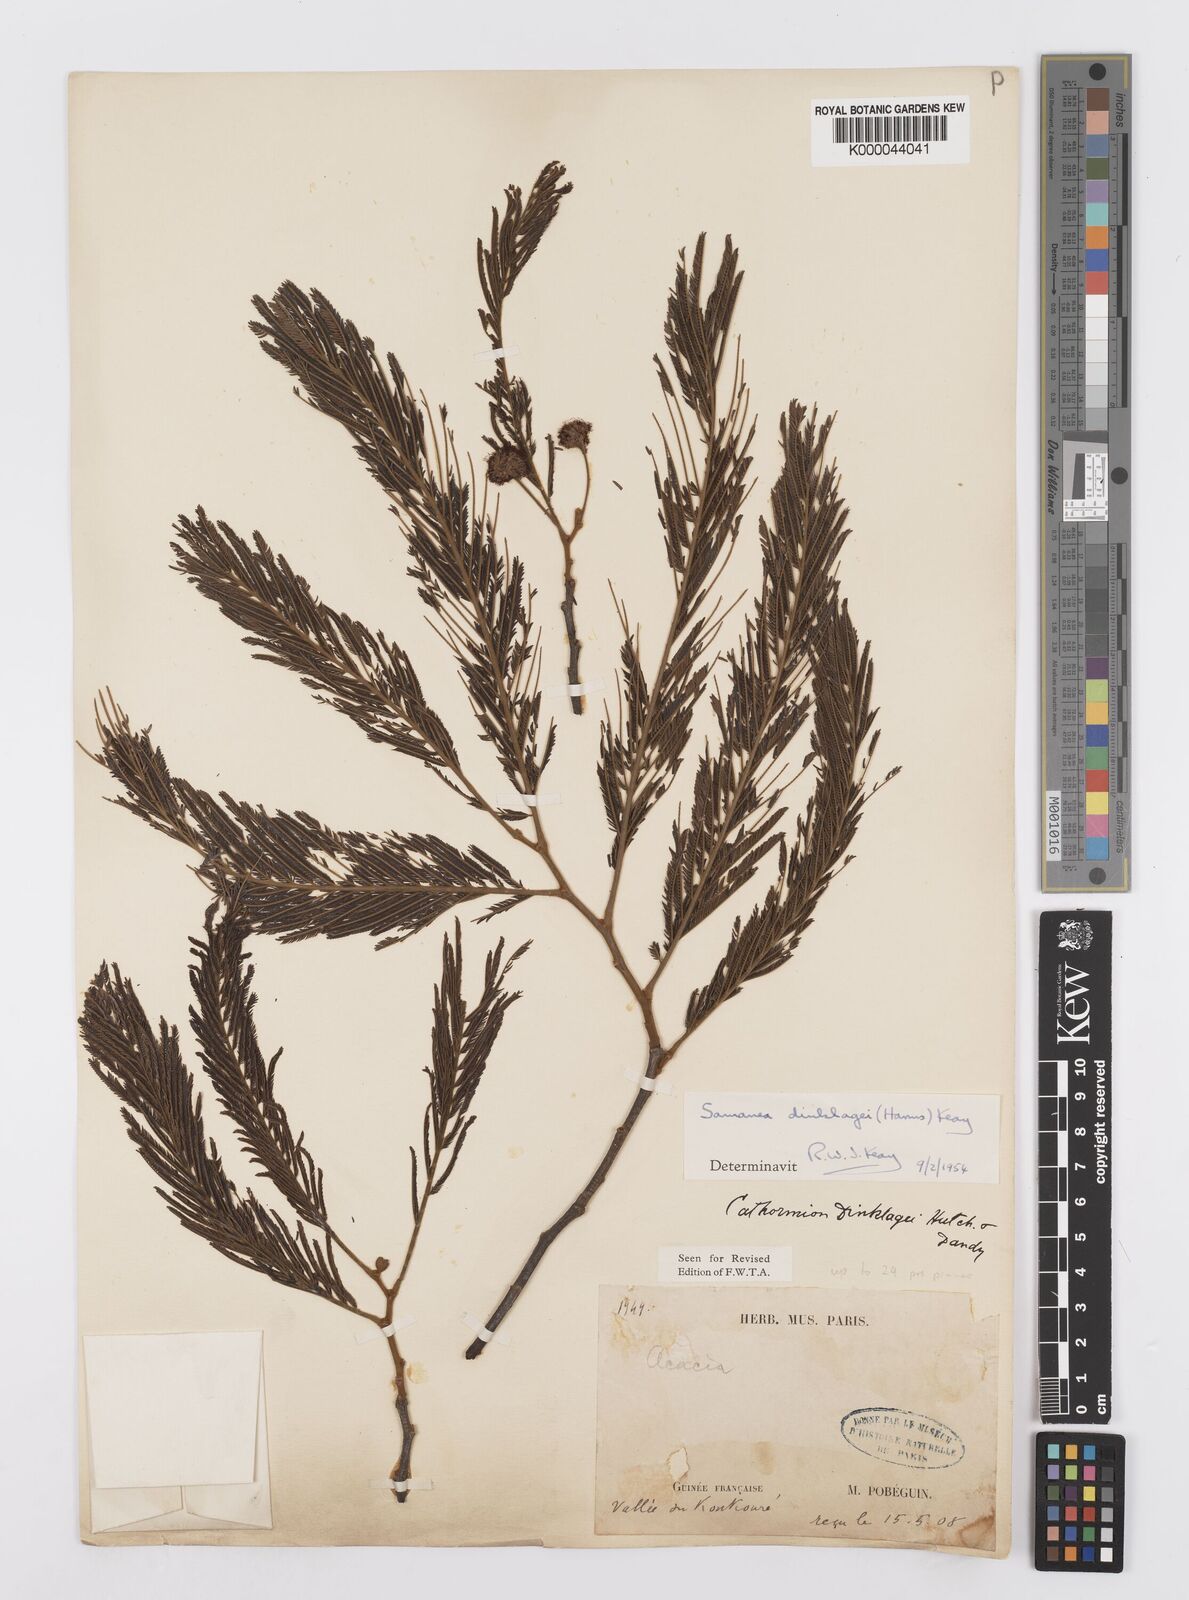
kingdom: Plantae
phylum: Tracheophyta
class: Magnoliopsida
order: Fabales
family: Fabaceae
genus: Albizia
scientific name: Albizia dinklagei
